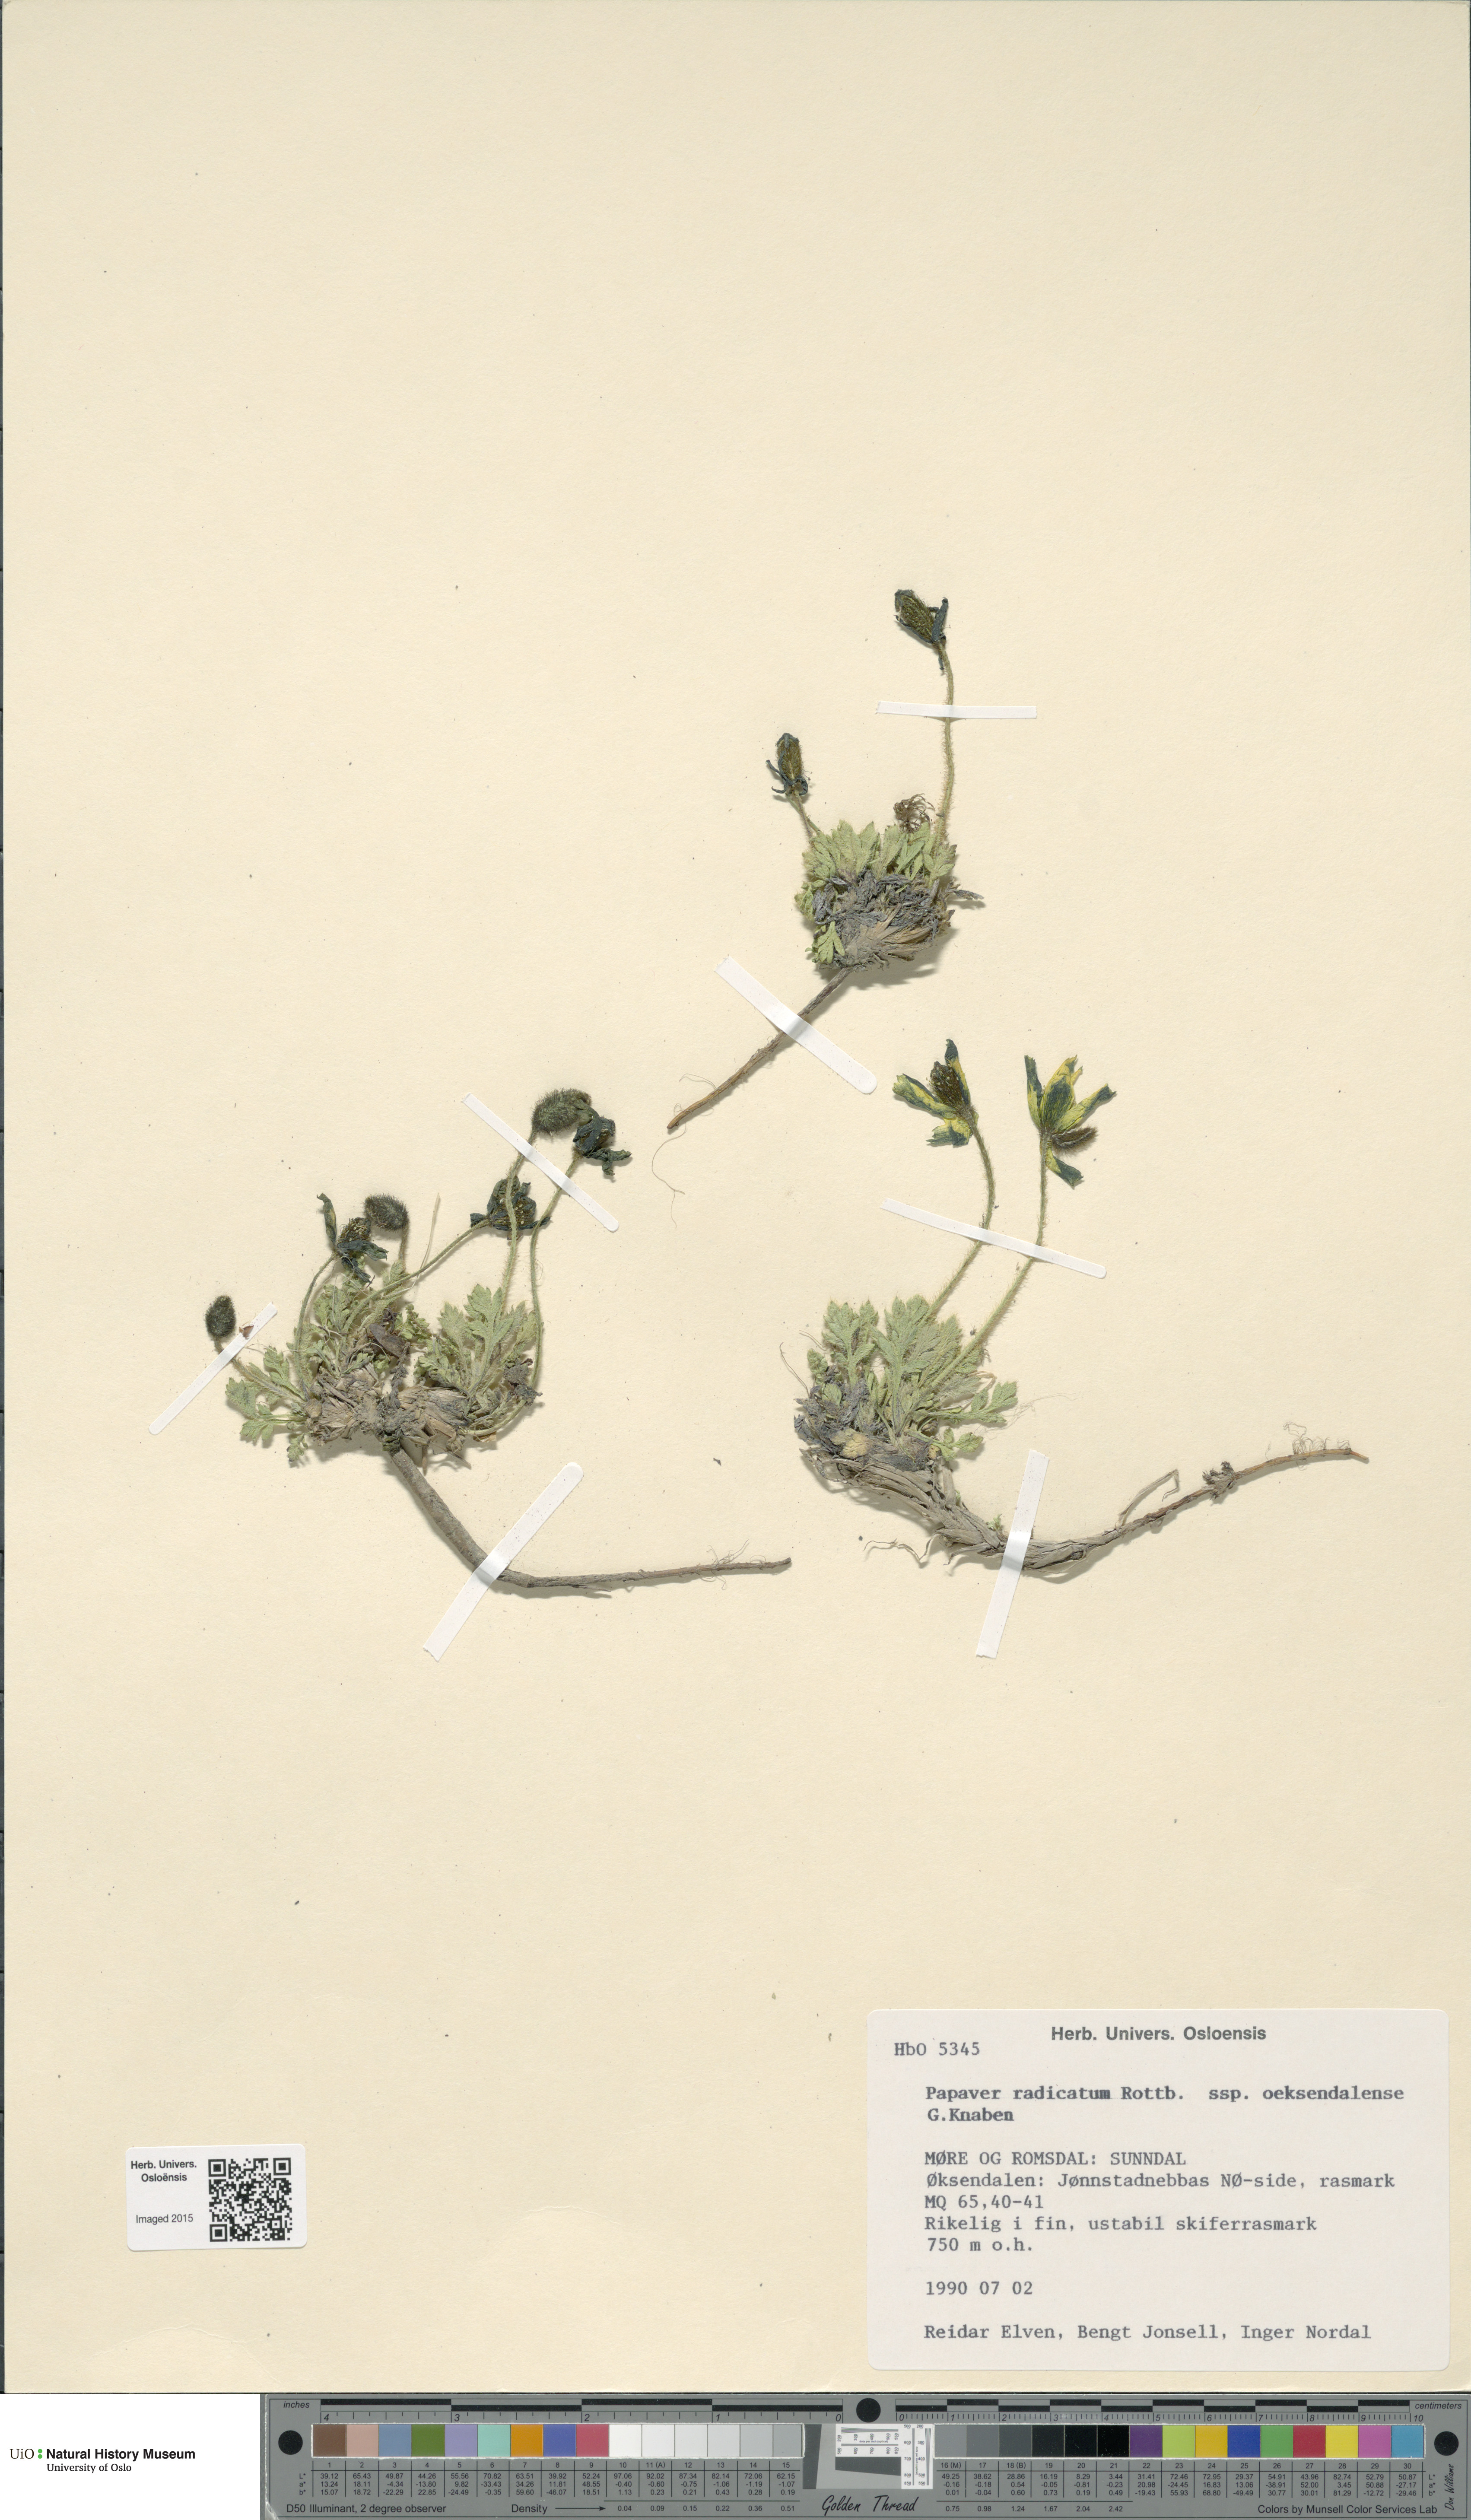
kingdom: Plantae
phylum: Tracheophyta
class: Magnoliopsida
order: Ranunculales
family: Papaveraceae
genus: Papaver
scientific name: Papaver radicatum
